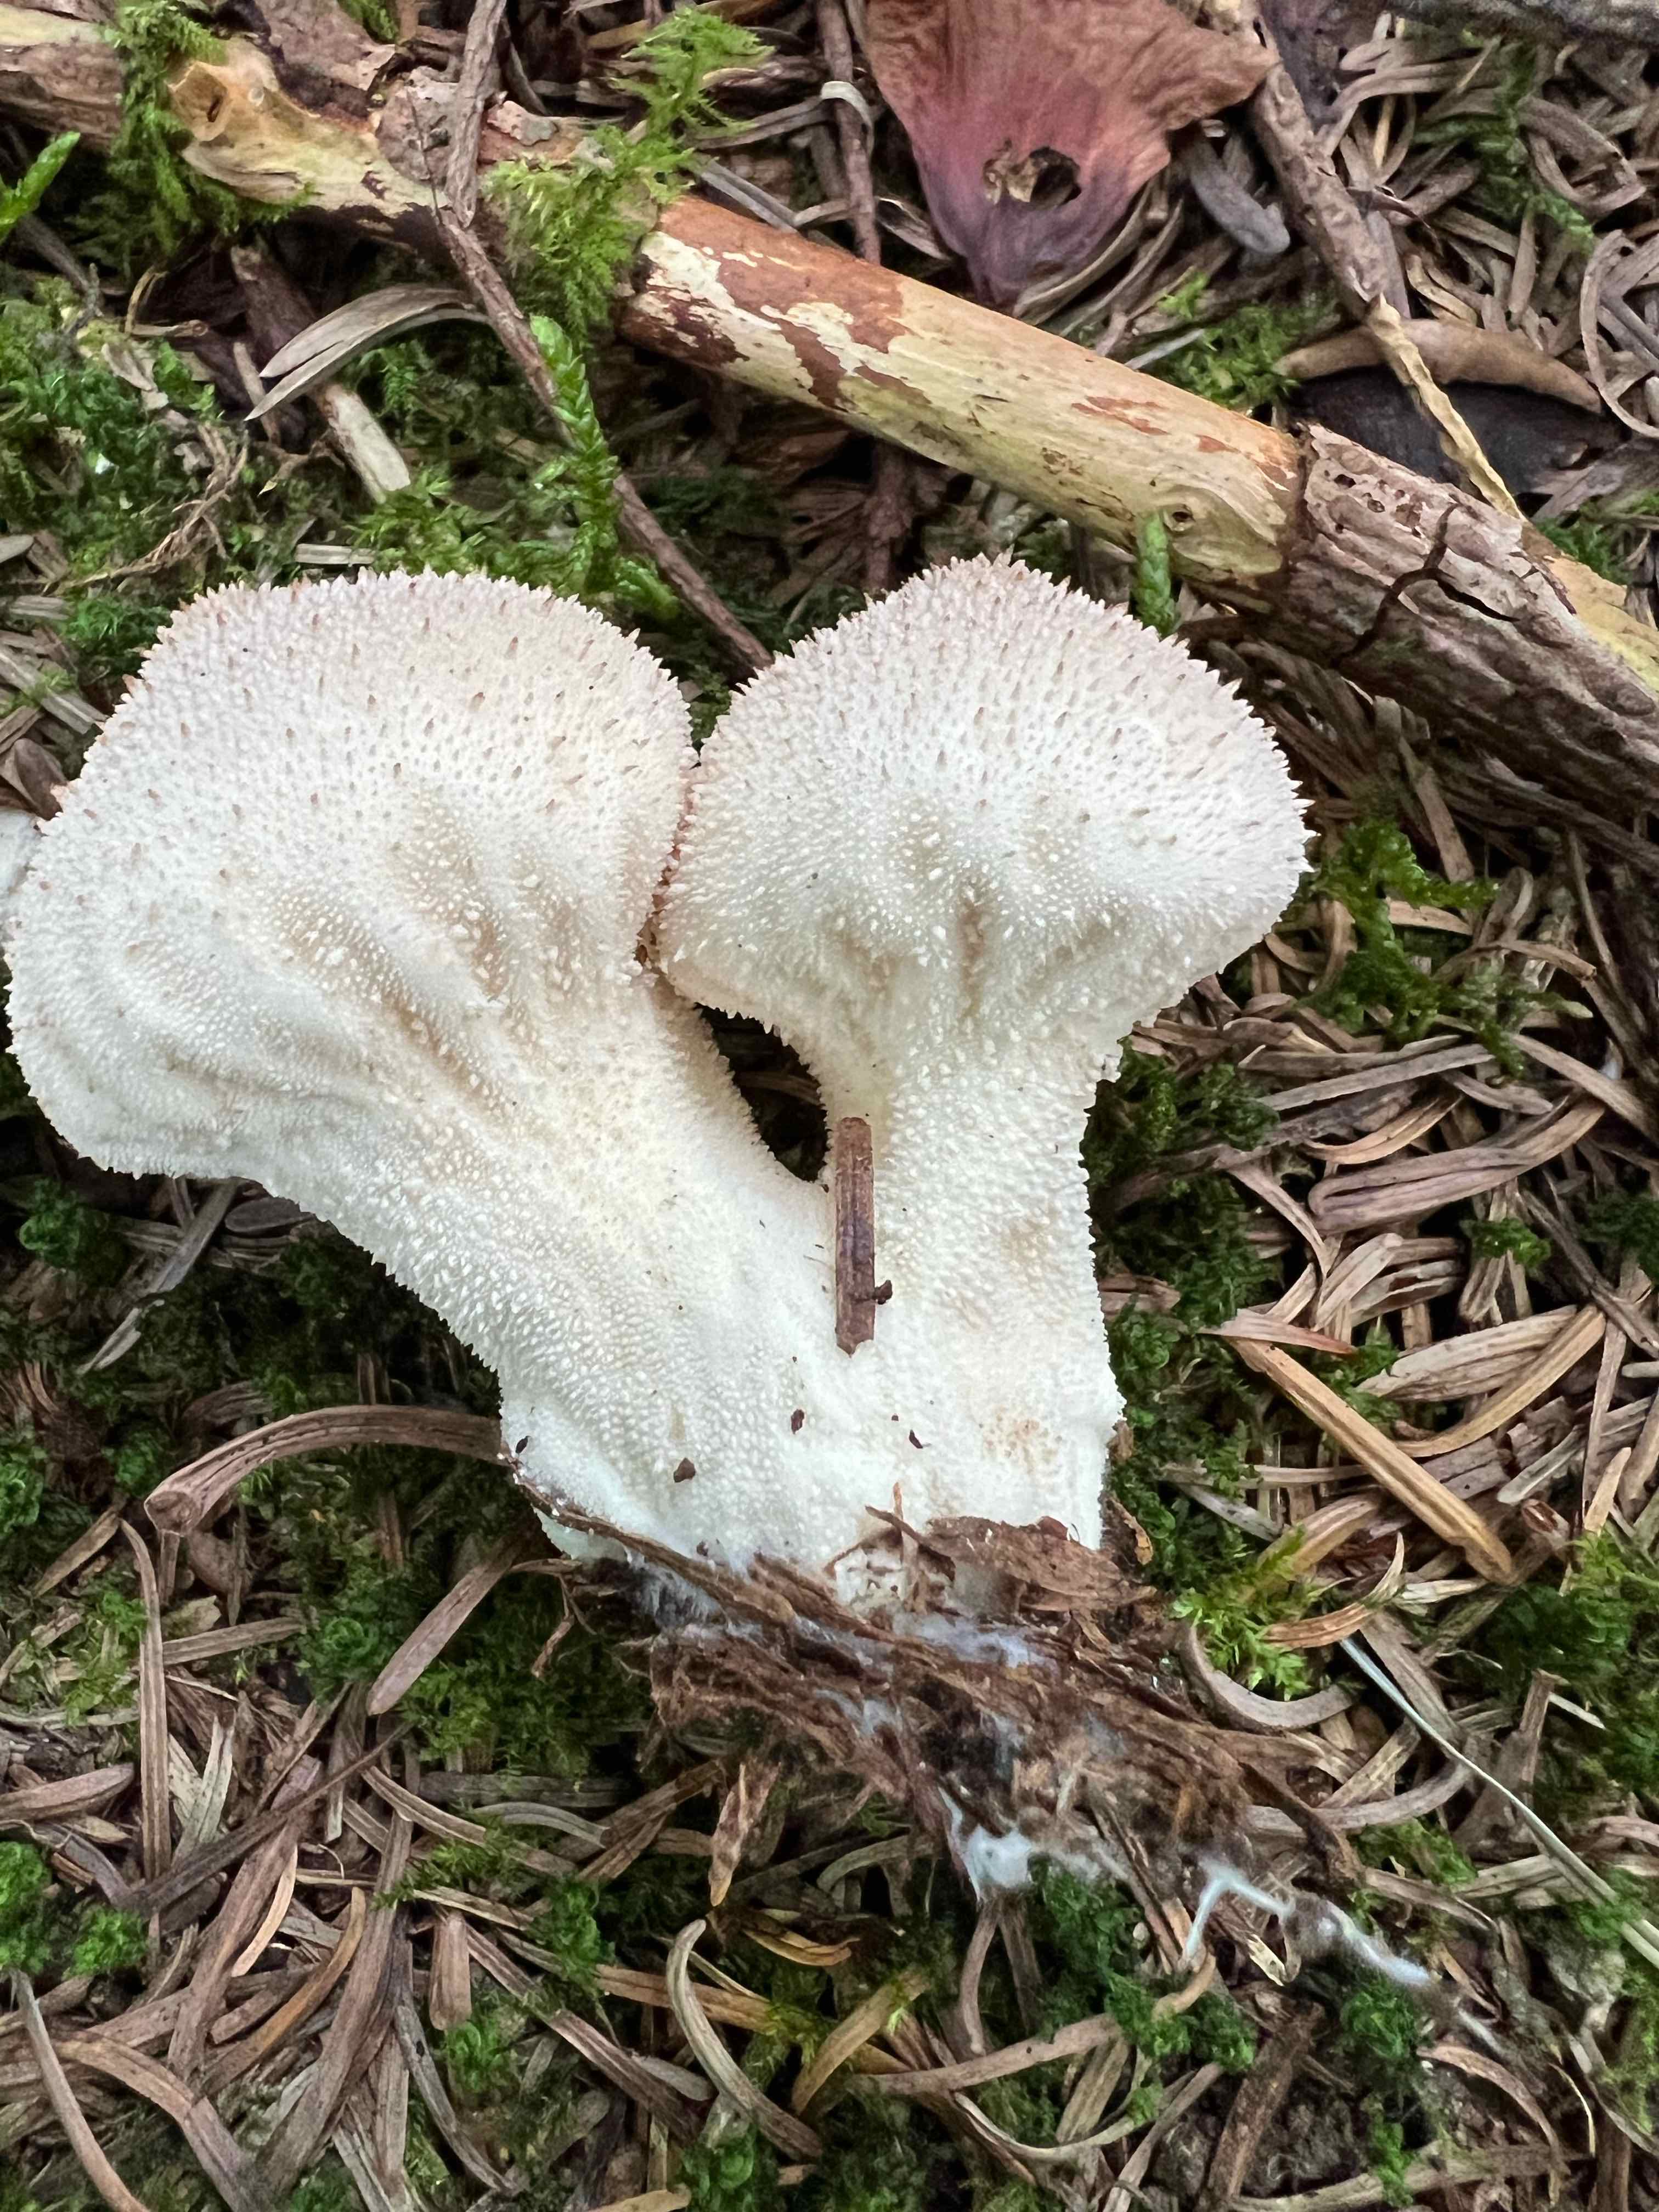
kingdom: Fungi
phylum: Basidiomycota
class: Agaricomycetes
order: Agaricales
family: Lycoperdaceae
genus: Lycoperdon
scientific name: Lycoperdon perlatum
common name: krystal-støvbold
